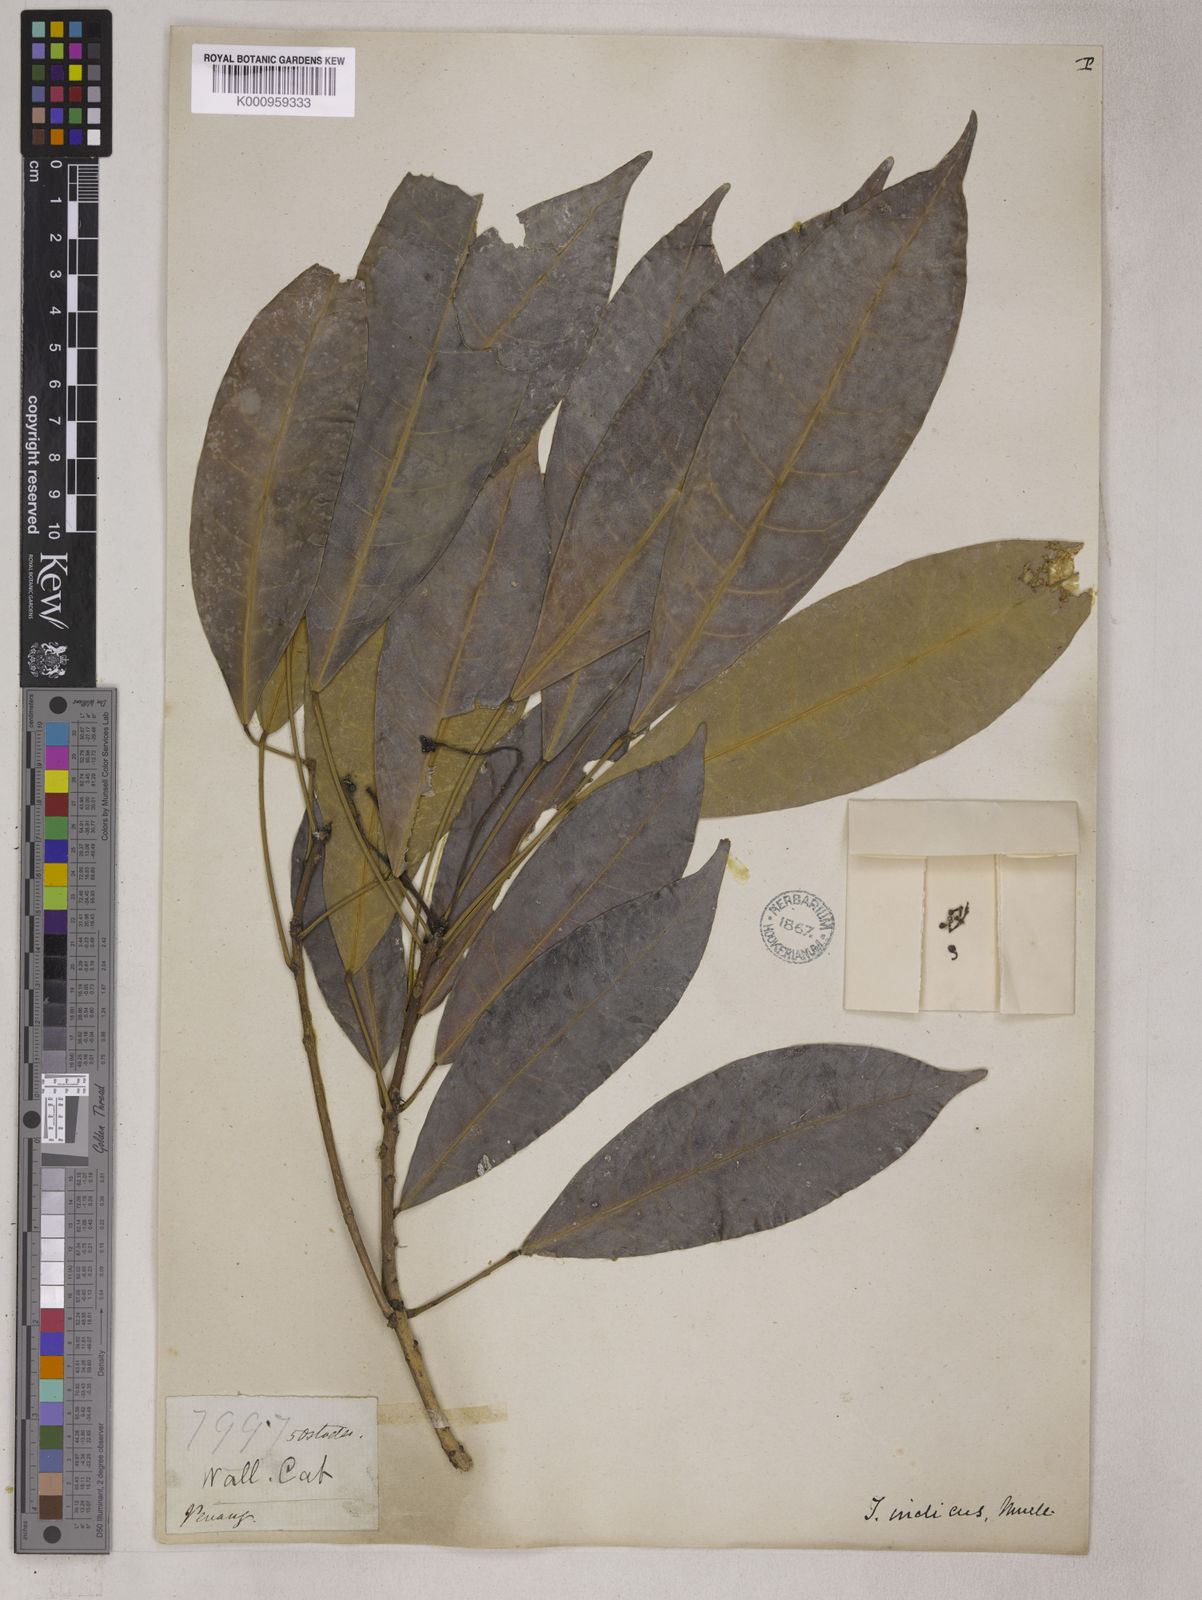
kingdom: Plantae
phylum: Tracheophyta
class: Magnoliopsida
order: Malpighiales
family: Euphorbiaceae
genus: Trigonostemon
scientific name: Trigonostemon verticillatus
